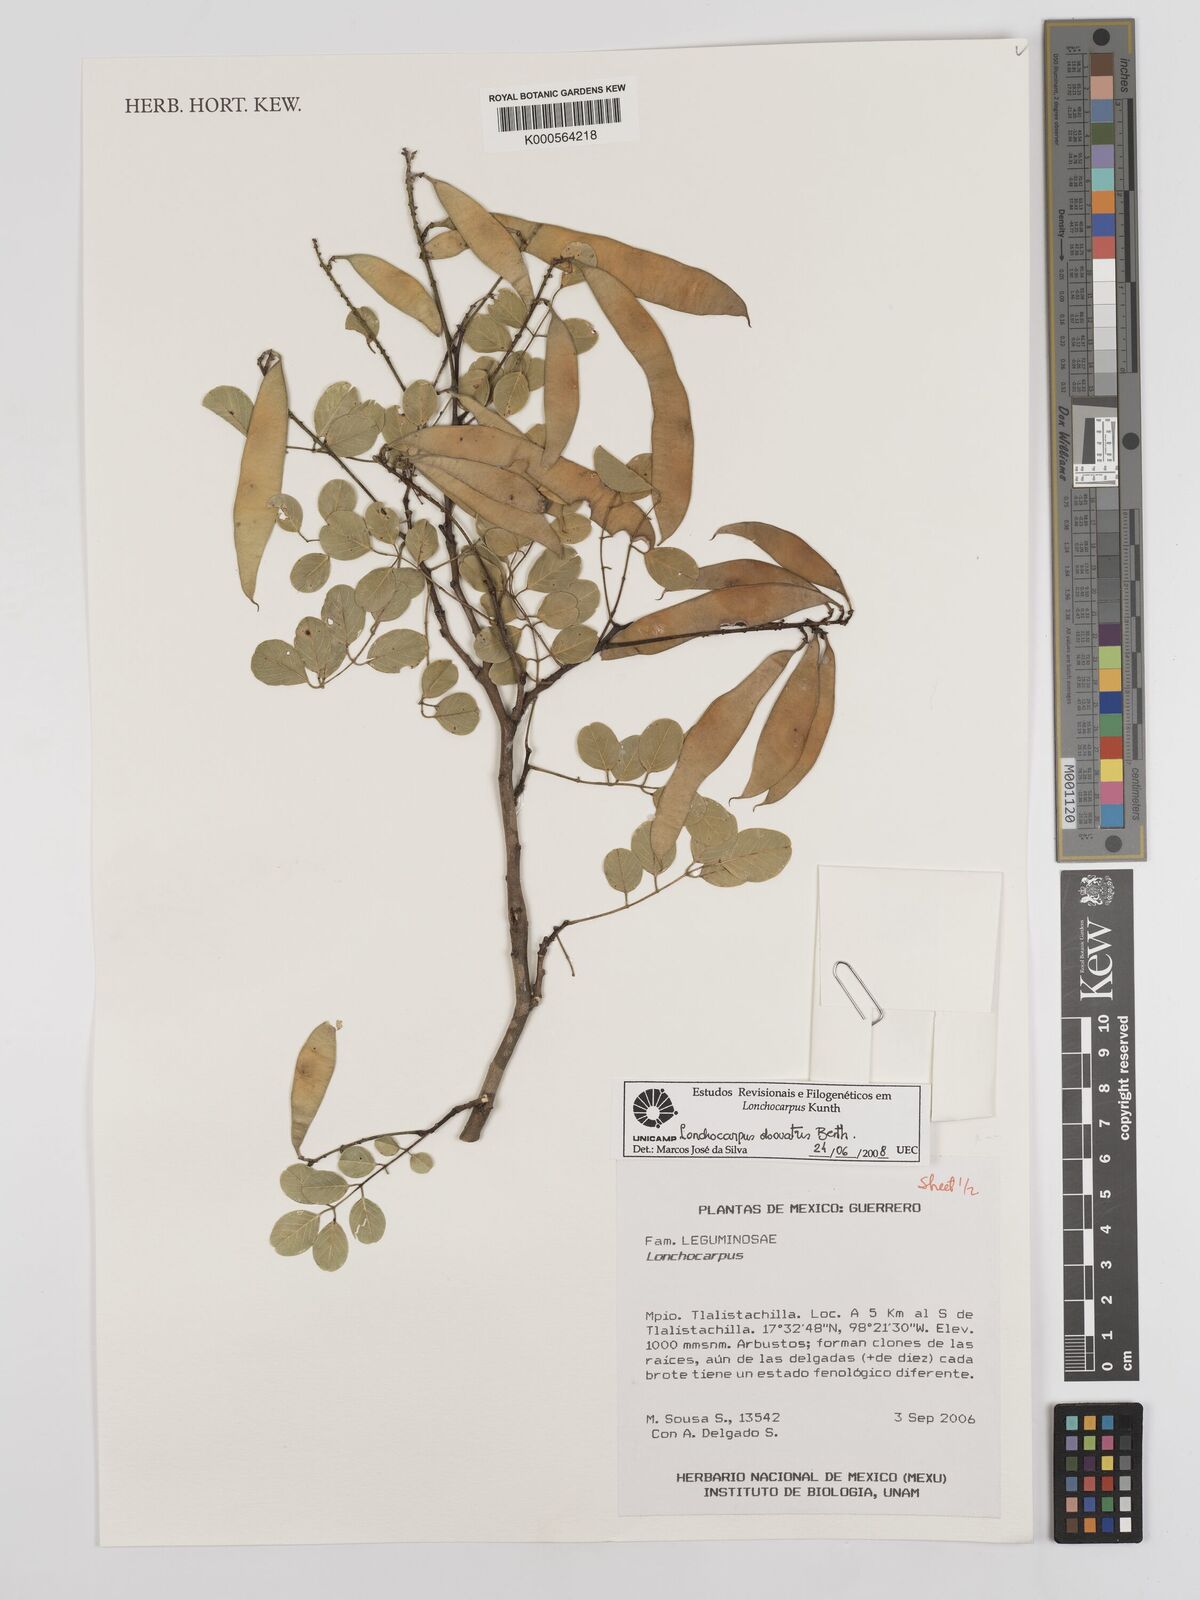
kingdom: Plantae
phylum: Tracheophyta
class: Magnoliopsida
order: Fabales
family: Fabaceae
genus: Lonchocarpus
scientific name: Lonchocarpus obovatus
